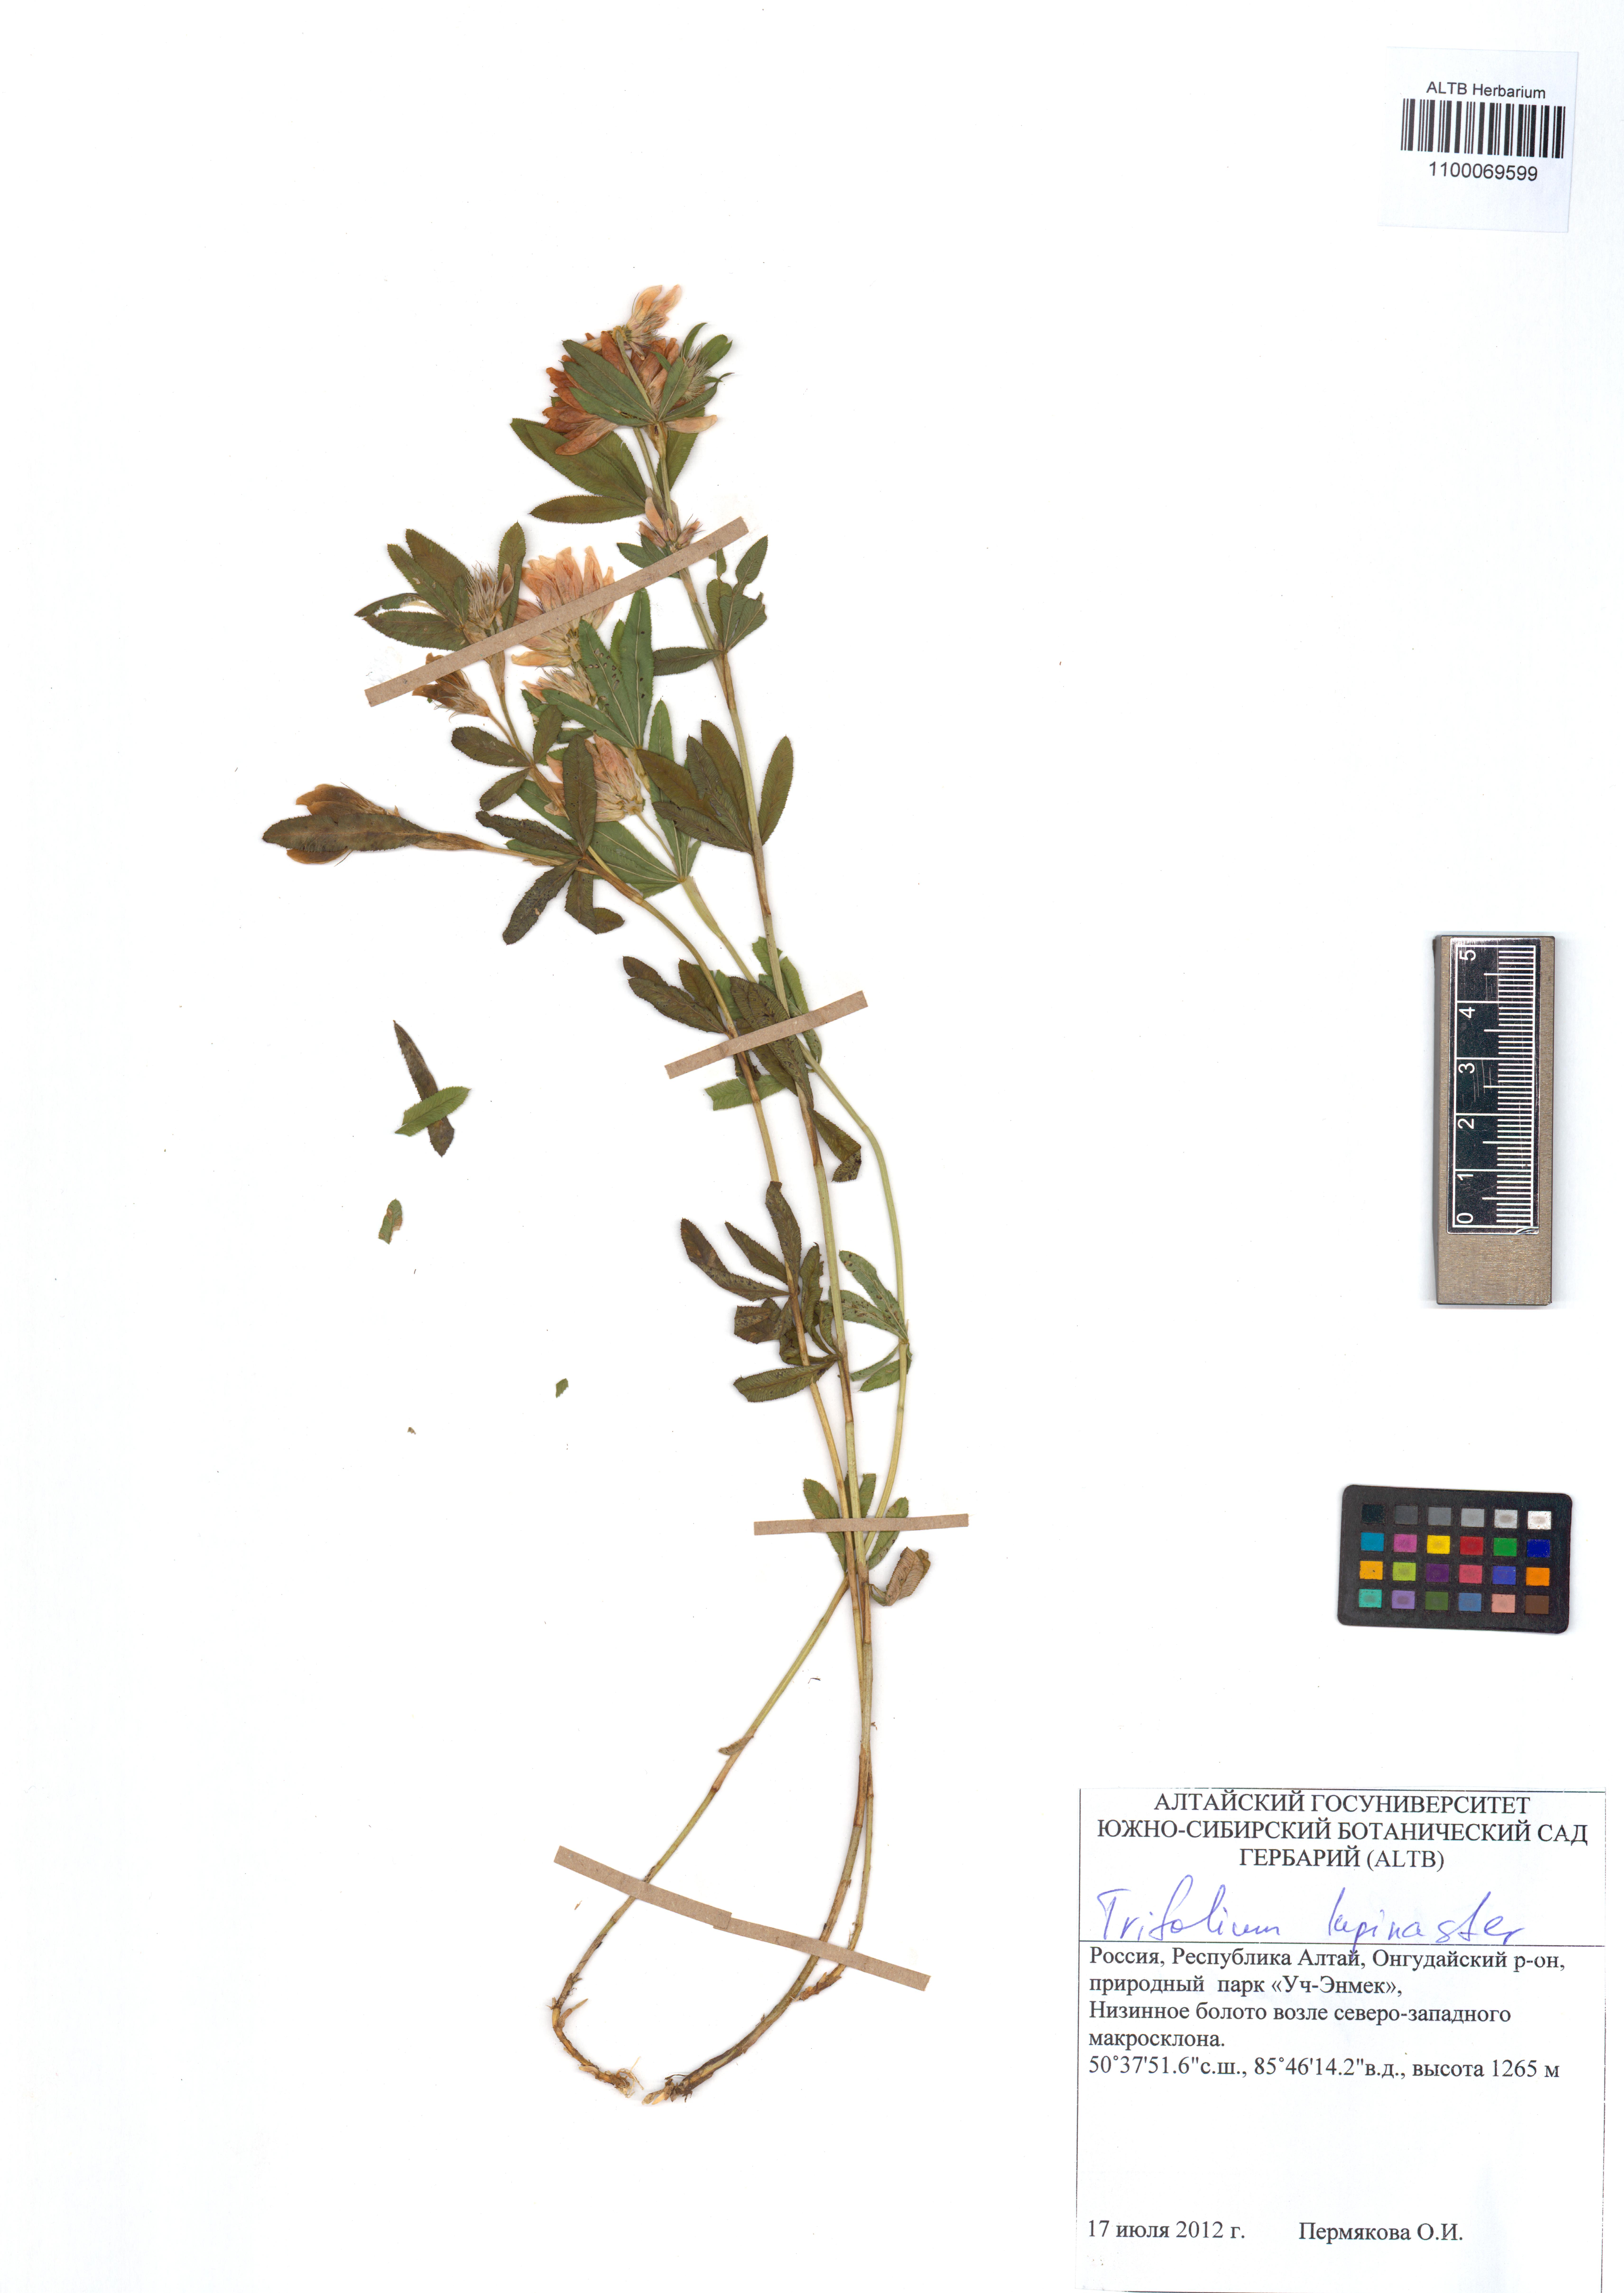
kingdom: Plantae
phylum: Tracheophyta
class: Magnoliopsida
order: Fabales
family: Fabaceae
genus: Trifolium
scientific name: Trifolium lupinaster
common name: Lupine clover
